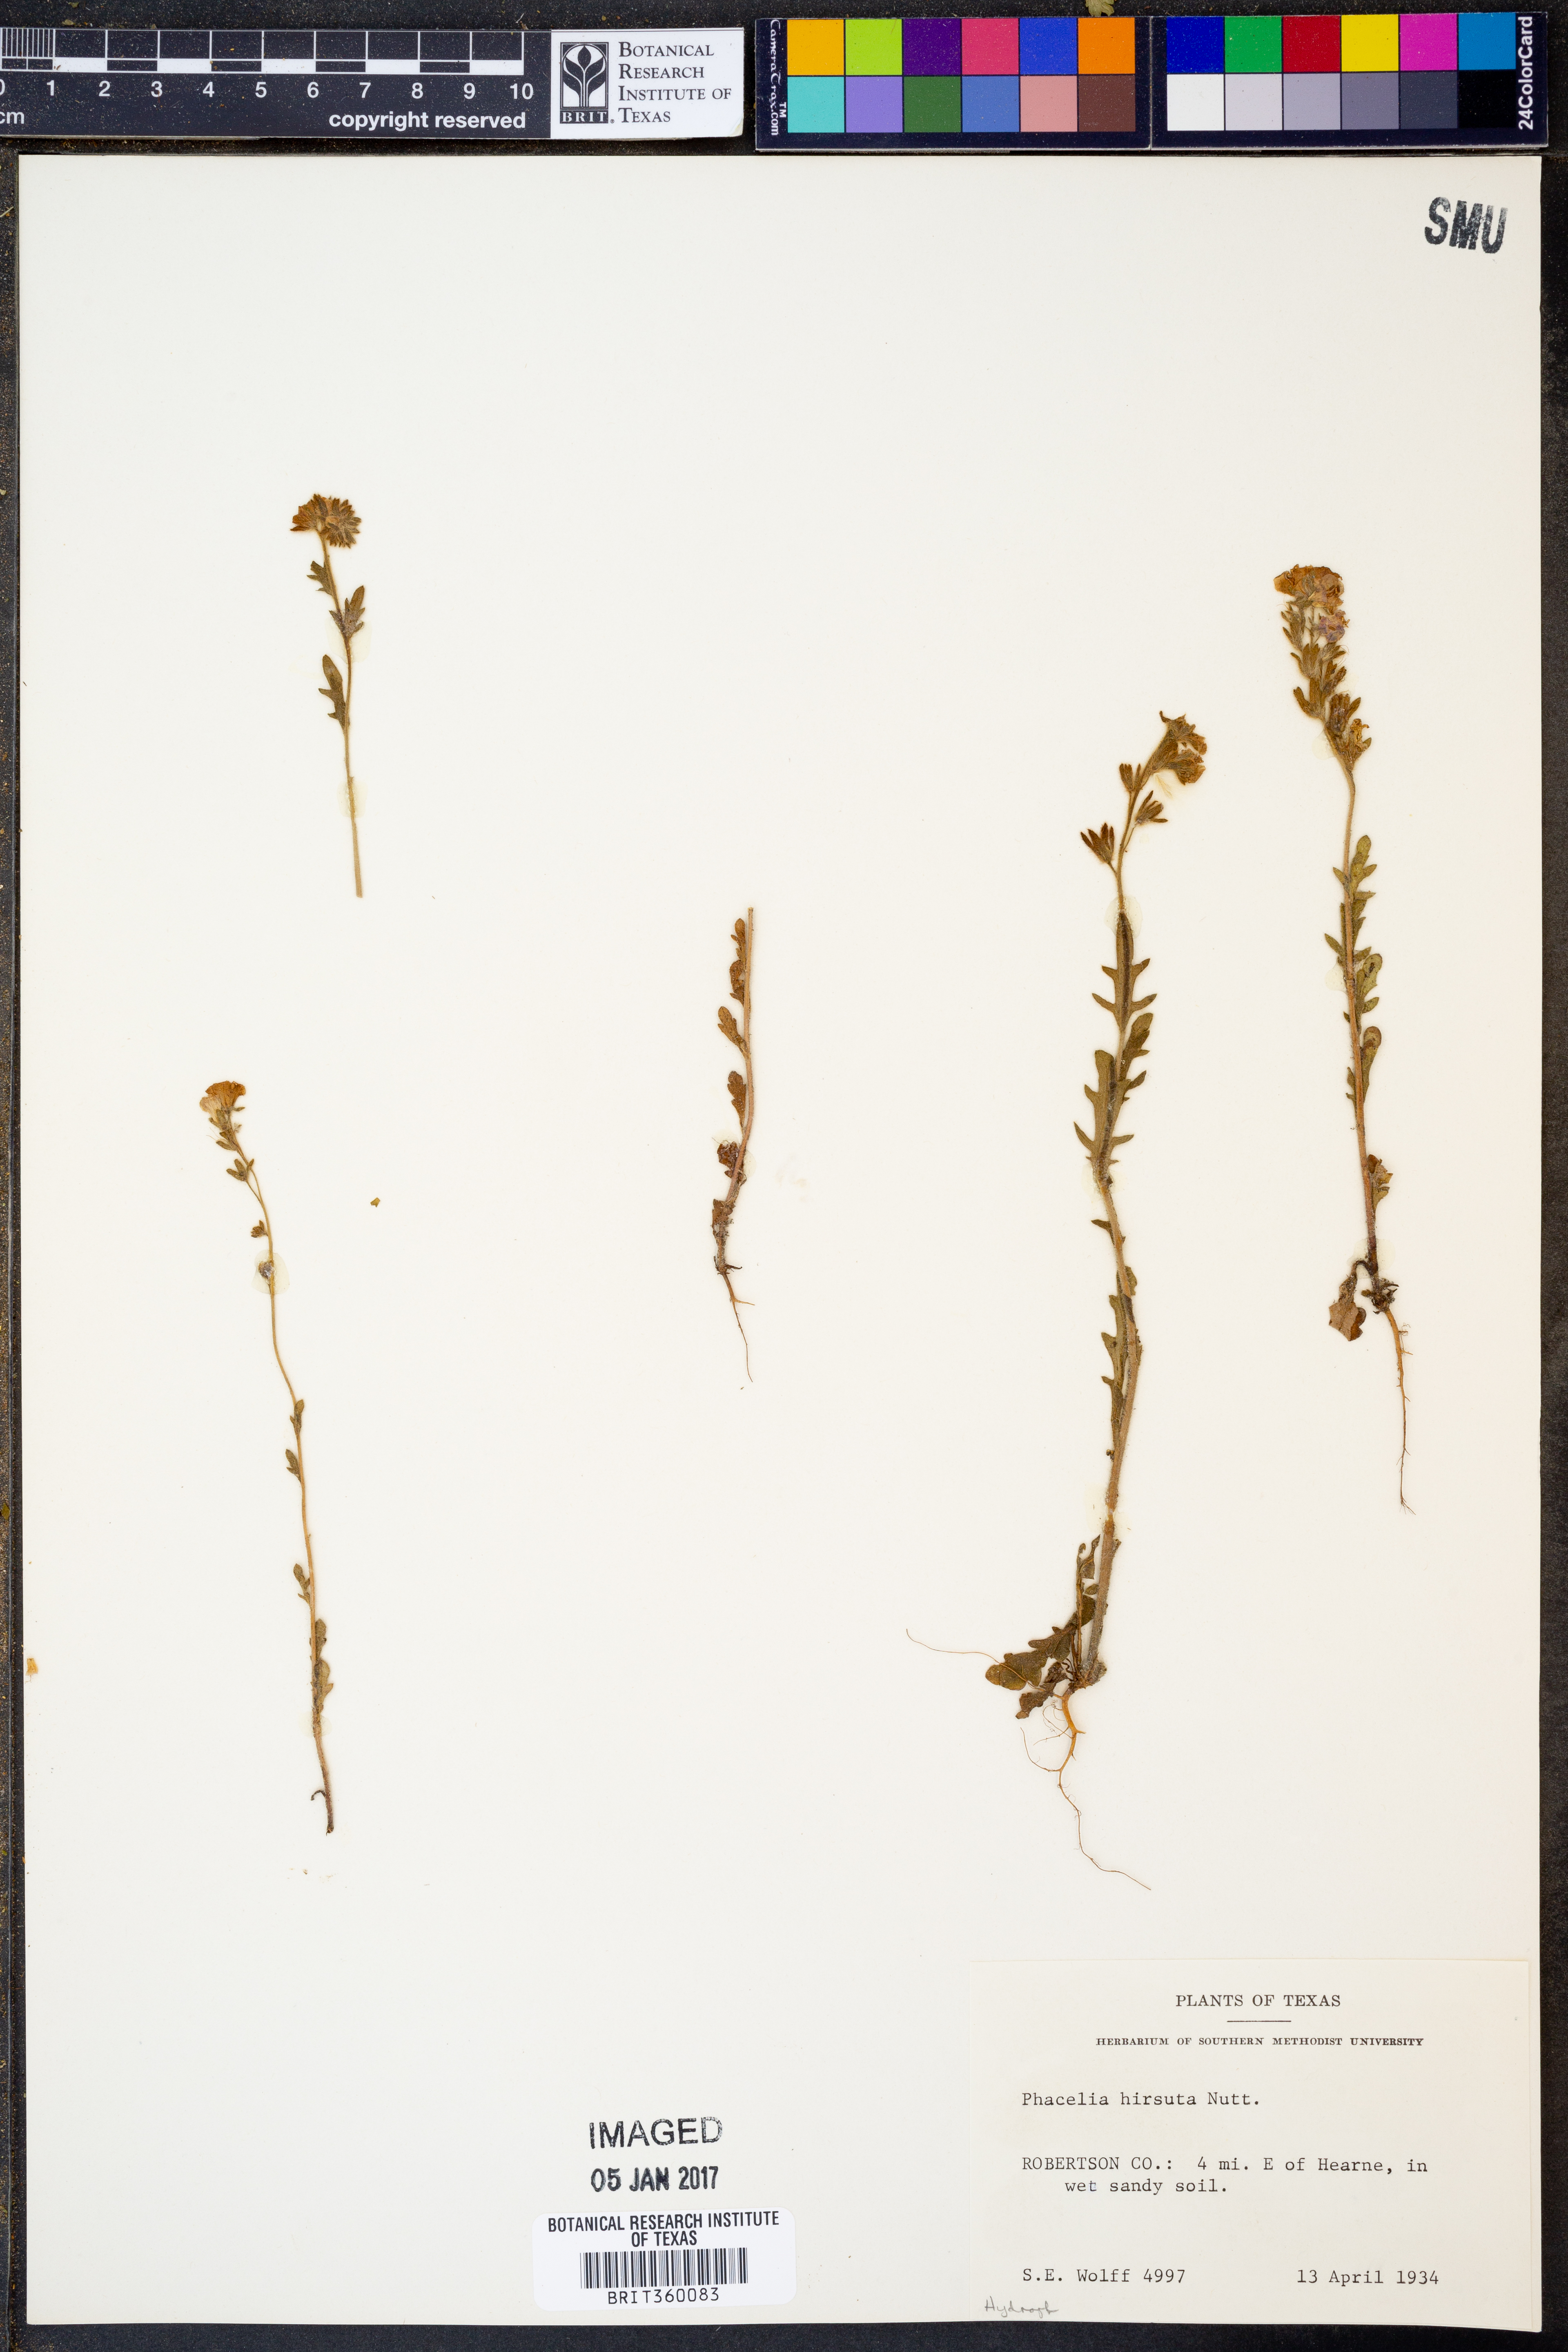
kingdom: Plantae
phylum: Tracheophyta
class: Magnoliopsida
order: Boraginales
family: Hydrophyllaceae
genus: Phacelia
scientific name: Phacelia hirsuta
